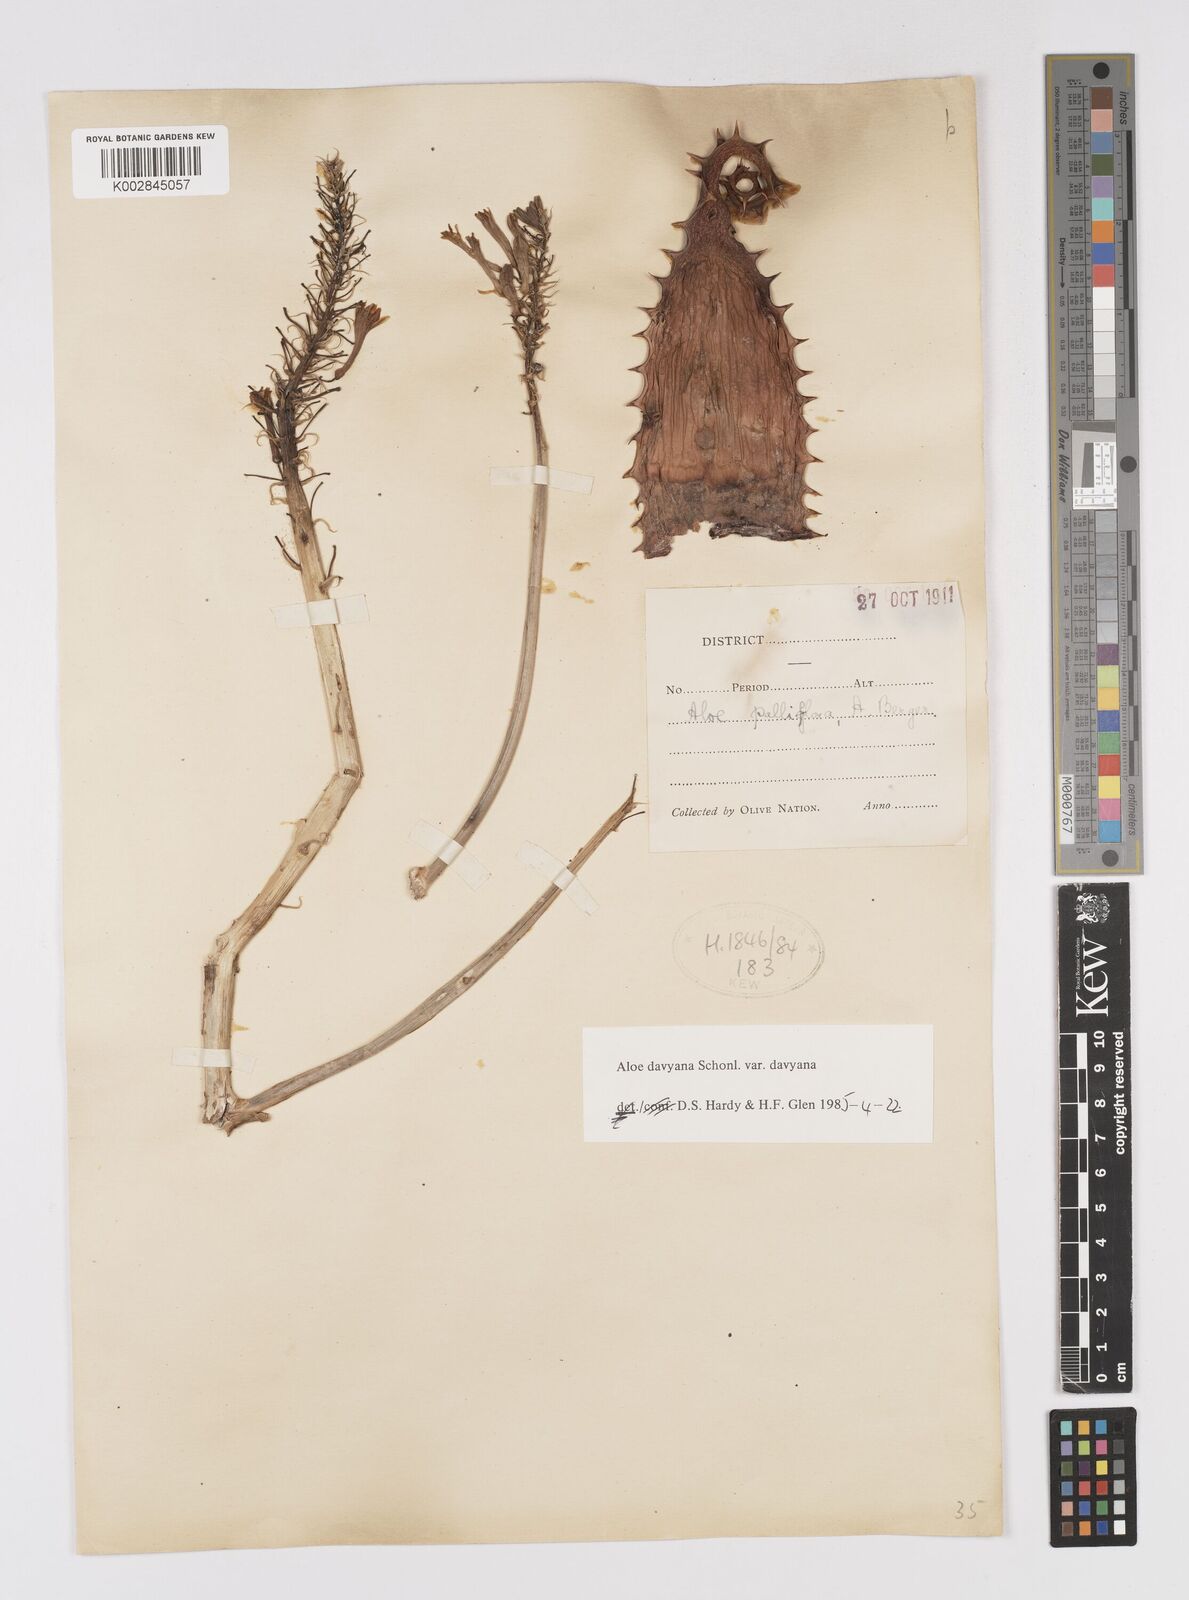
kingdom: Plantae
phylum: Tracheophyta
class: Liliopsida
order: Asparagales
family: Asphodelaceae
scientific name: Asphodelaceae
